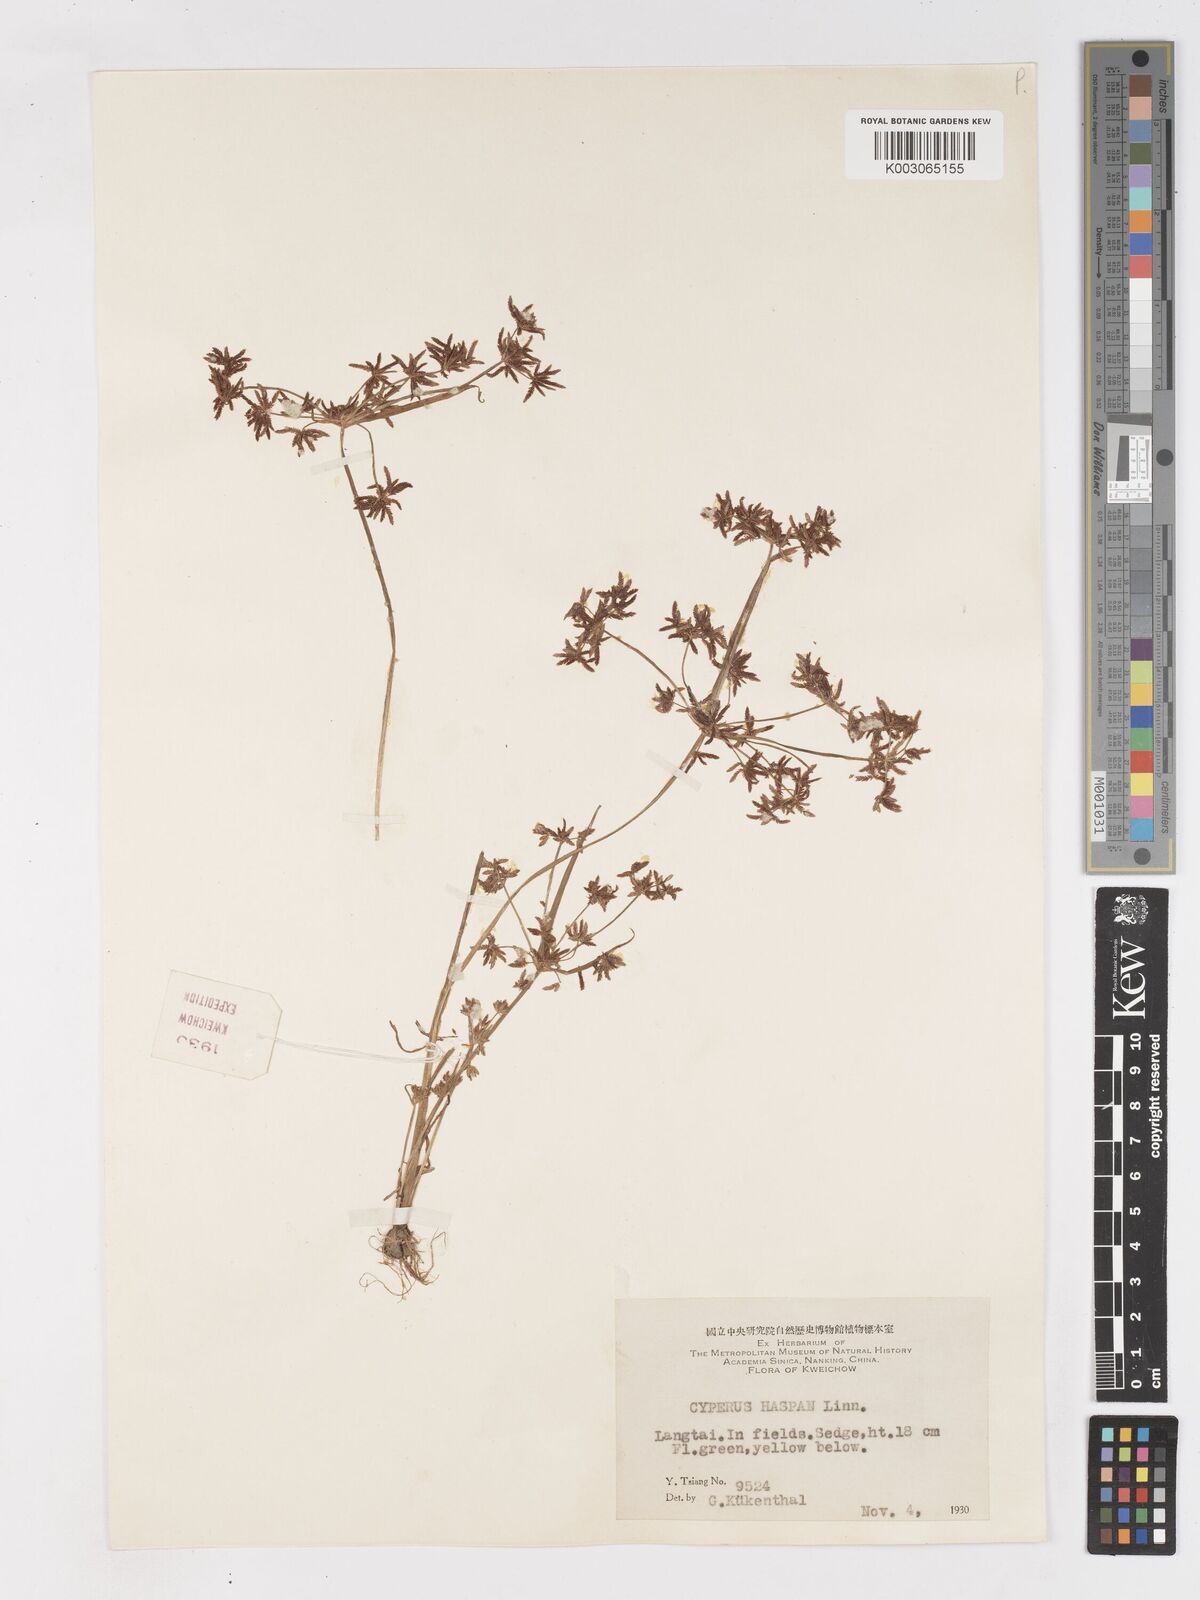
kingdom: Plantae
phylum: Tracheophyta
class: Liliopsida
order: Poales
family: Cyperaceae
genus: Cyperus
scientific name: Cyperus haspan
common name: Haspan flatsedge
